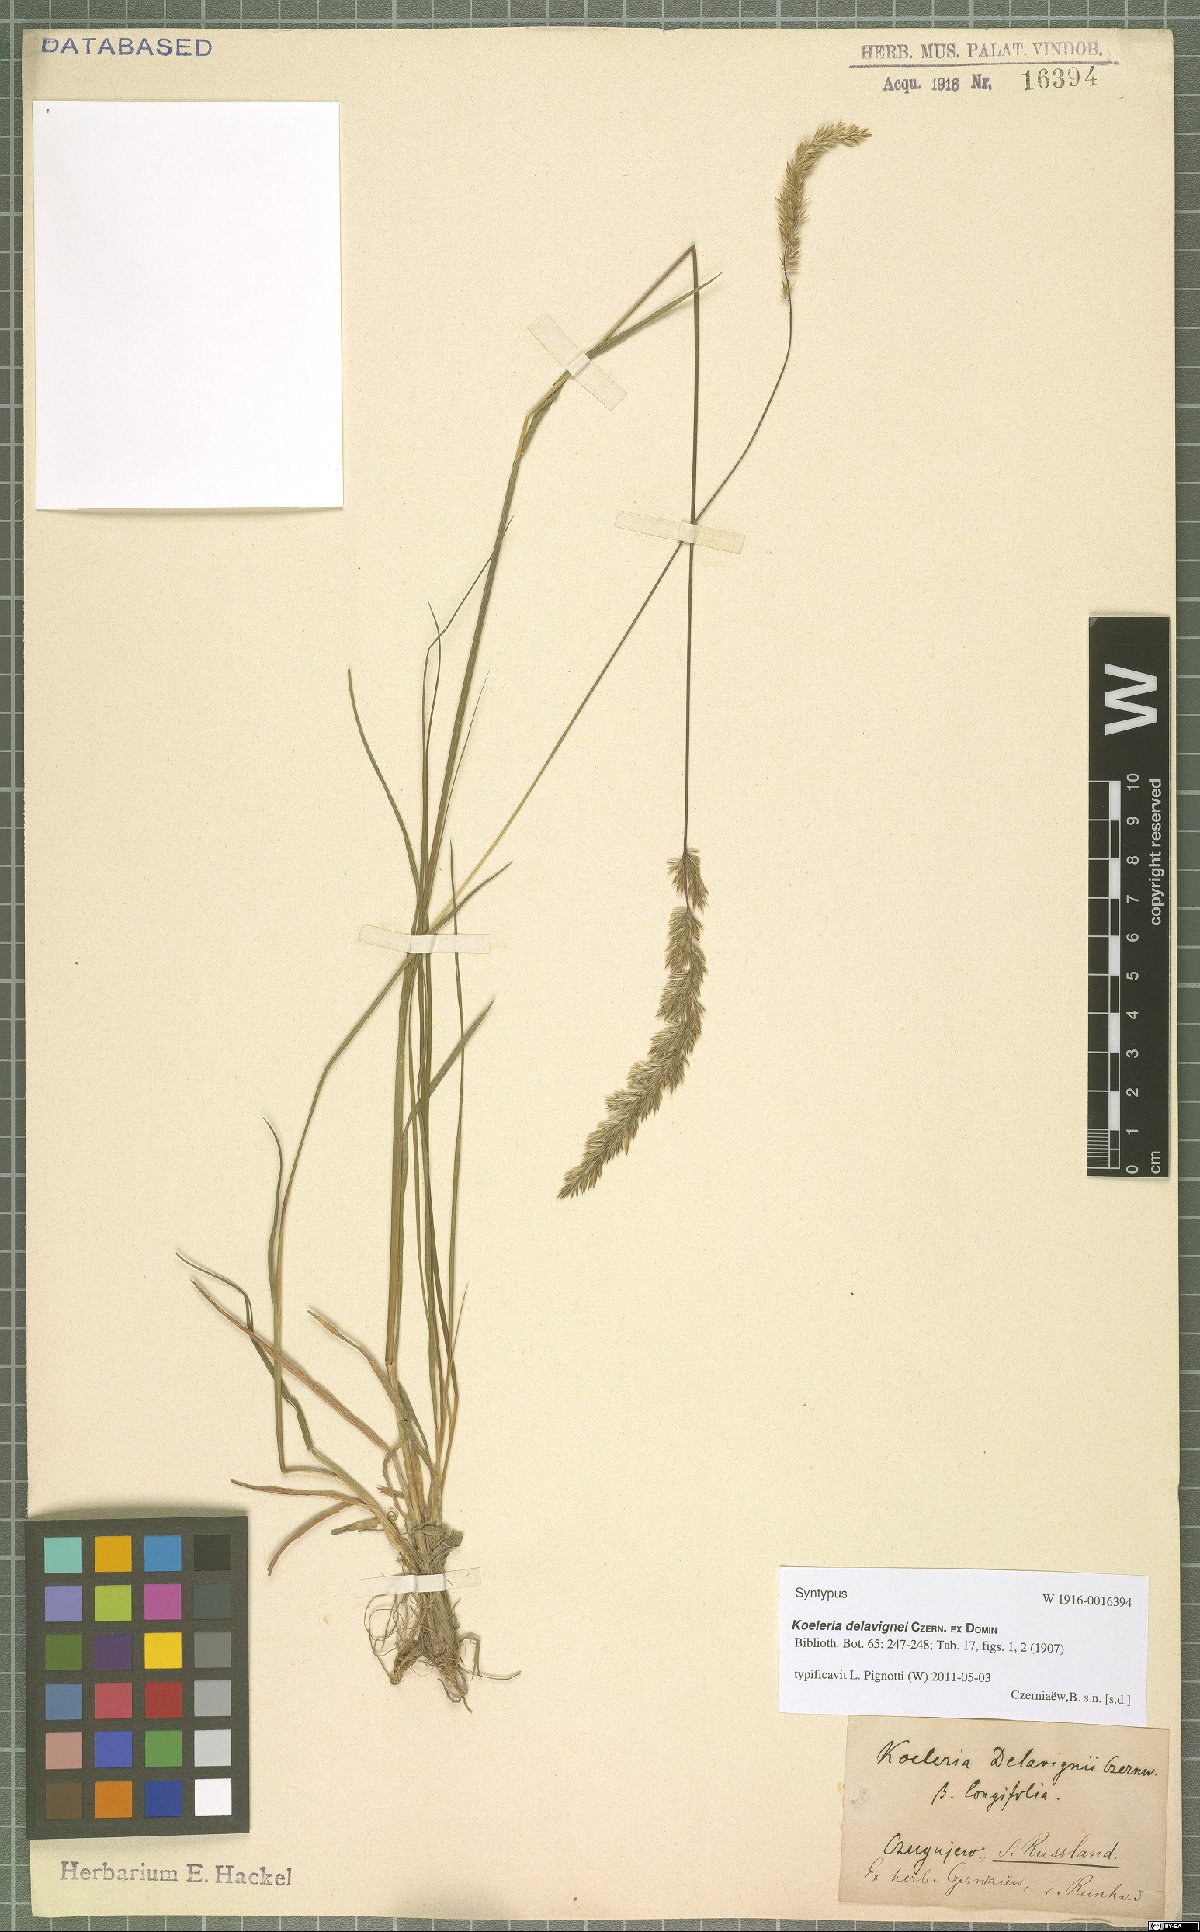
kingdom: Plantae
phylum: Tracheophyta
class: Liliopsida
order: Poales
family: Poaceae
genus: Koeleria
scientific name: Koeleria delavignei
